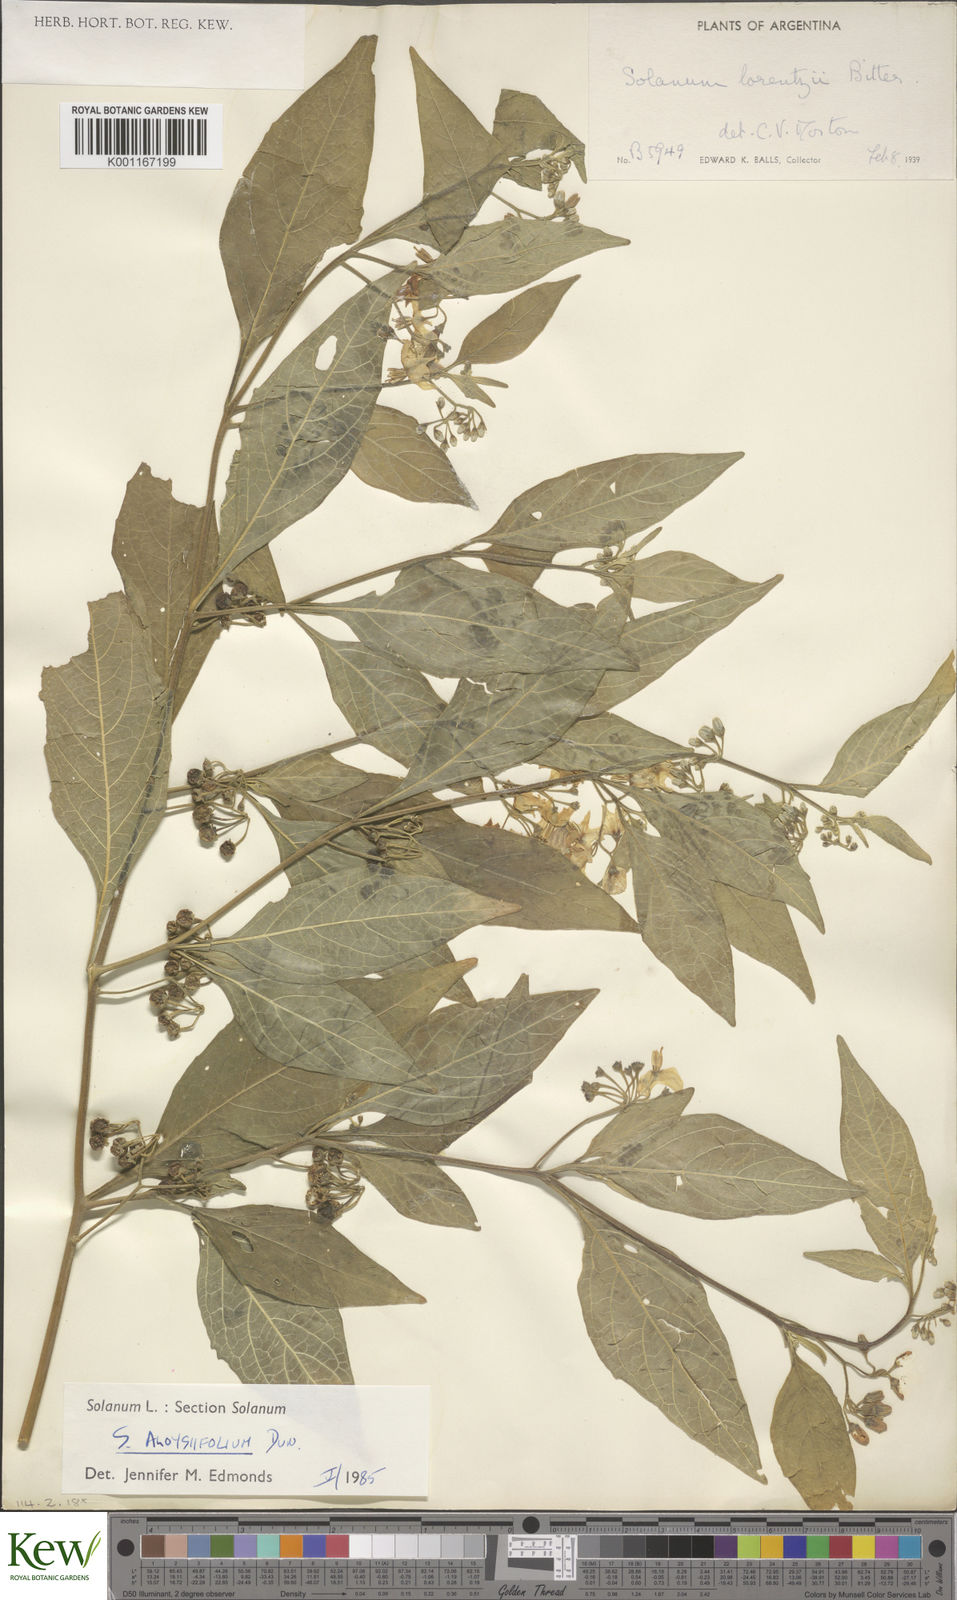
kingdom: Plantae
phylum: Tracheophyta
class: Magnoliopsida
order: Solanales
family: Solanaceae
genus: Solanum
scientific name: Solanum aloysiifolium
